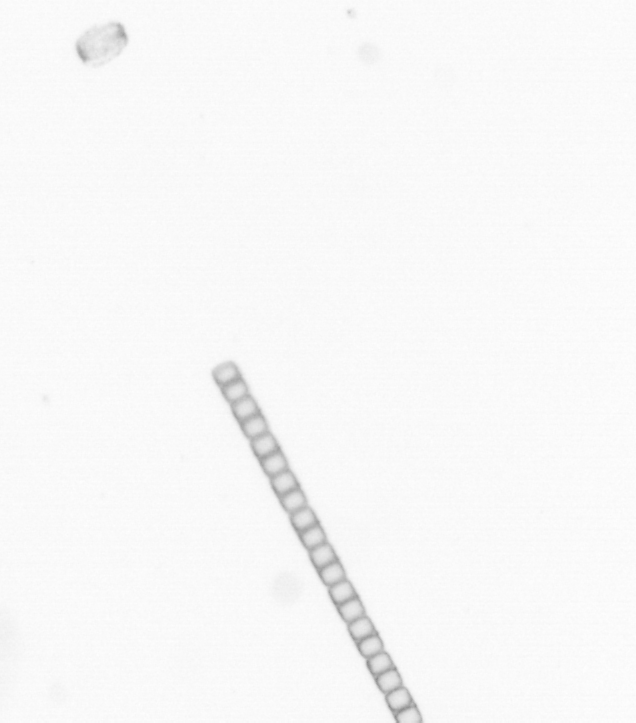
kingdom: Chromista
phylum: Ochrophyta
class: Bacillariophyceae
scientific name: Bacillariophyceae
